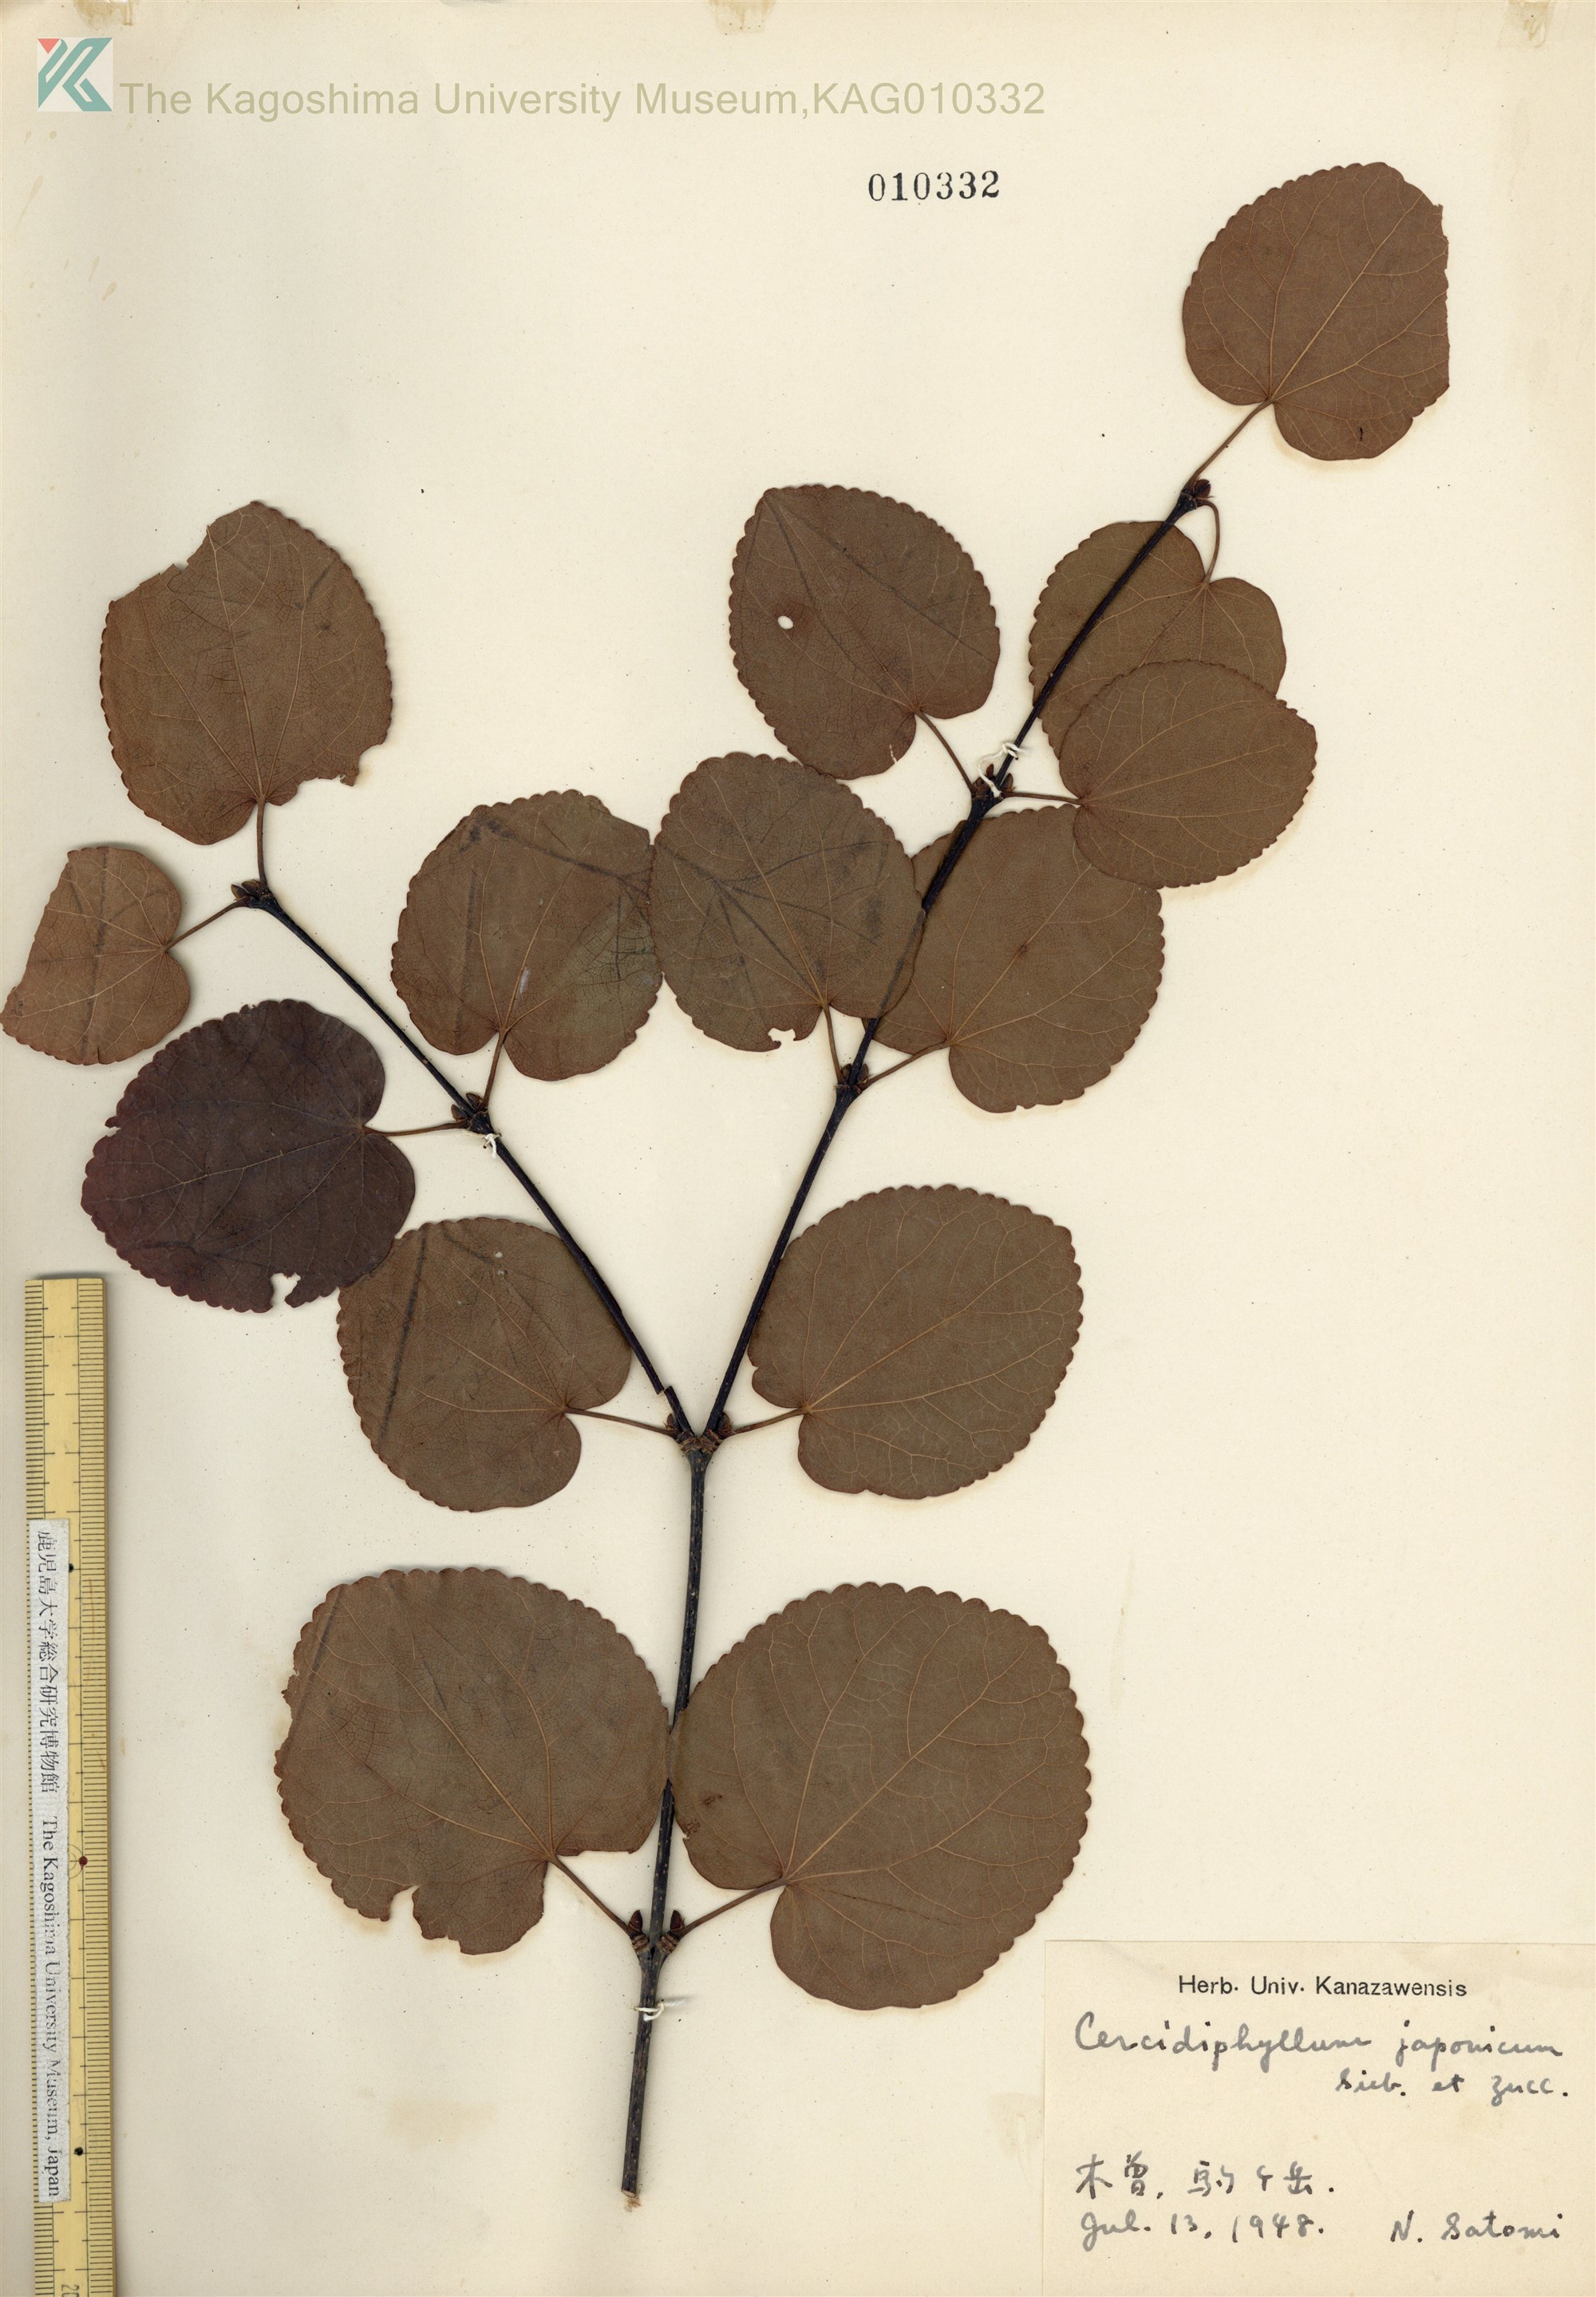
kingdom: Plantae
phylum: Tracheophyta
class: Magnoliopsida
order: Saxifragales
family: Cercidiphyllaceae
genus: Cercidiphyllum
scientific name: Cercidiphyllum magnificum
